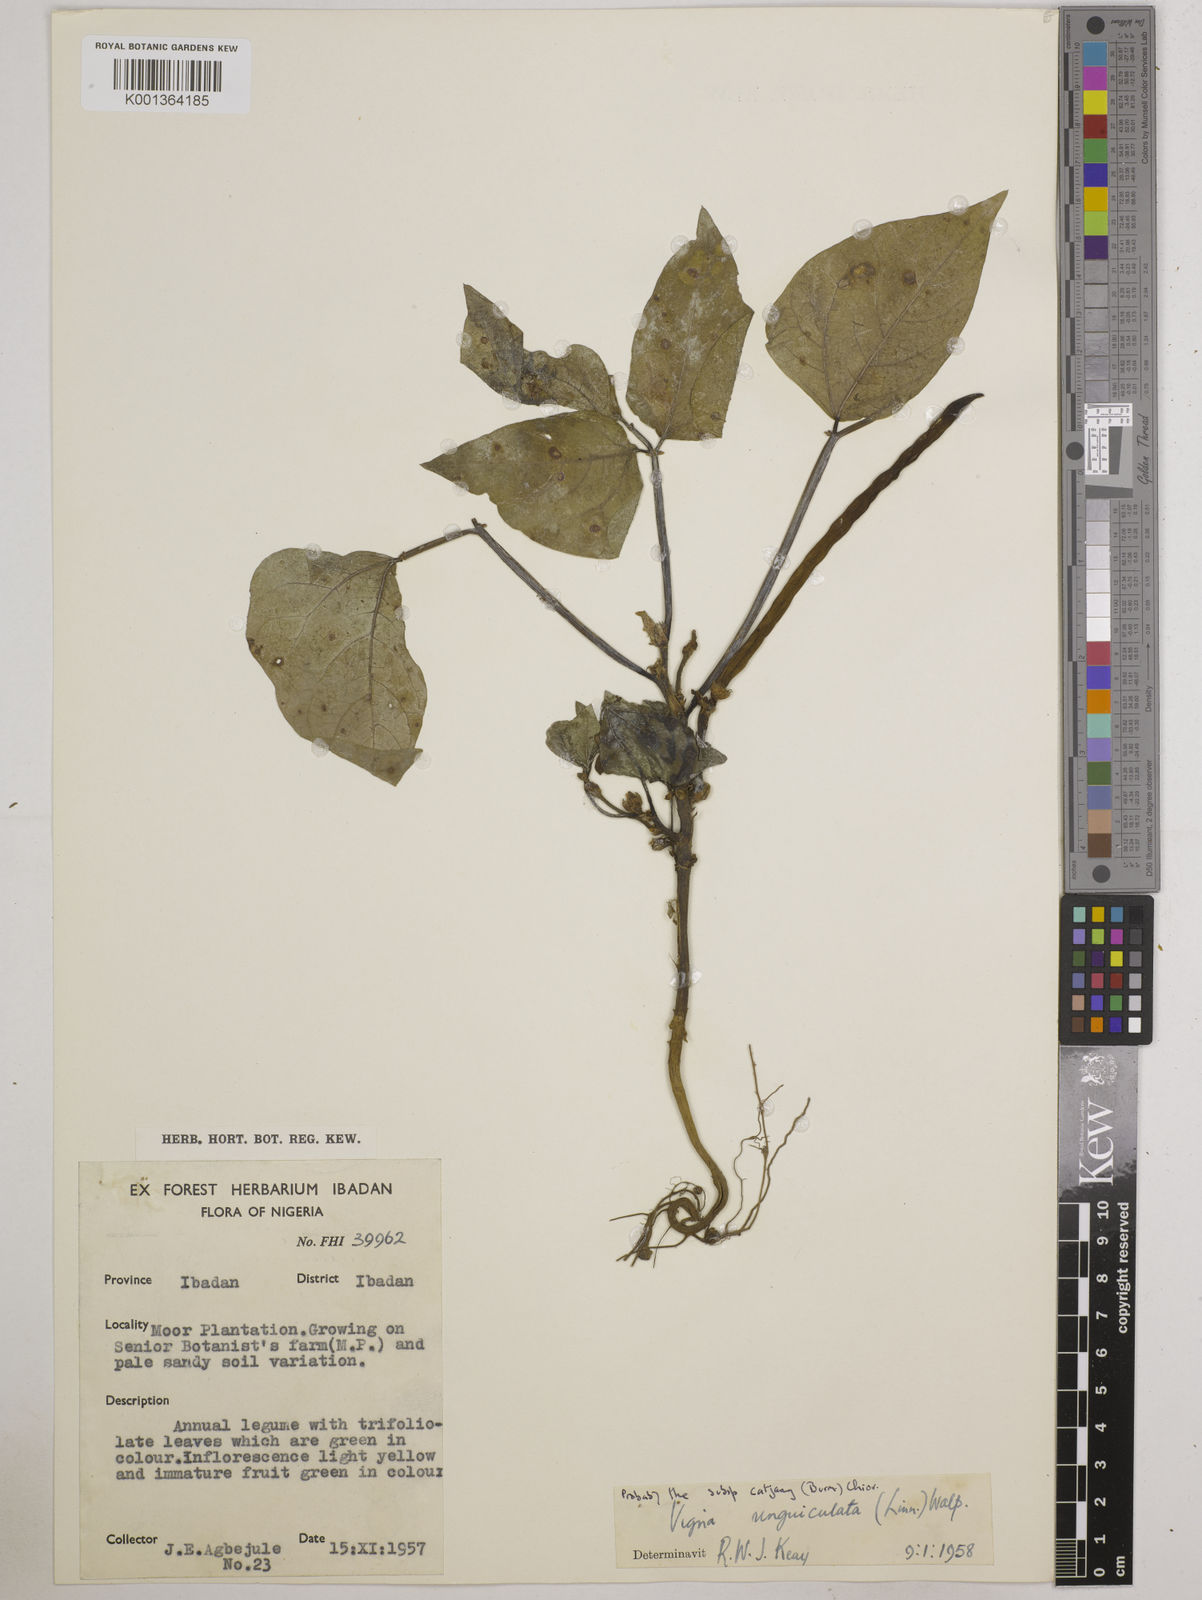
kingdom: Plantae
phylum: Tracheophyta
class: Magnoliopsida
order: Fabales
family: Fabaceae
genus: Vigna
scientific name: Vigna
